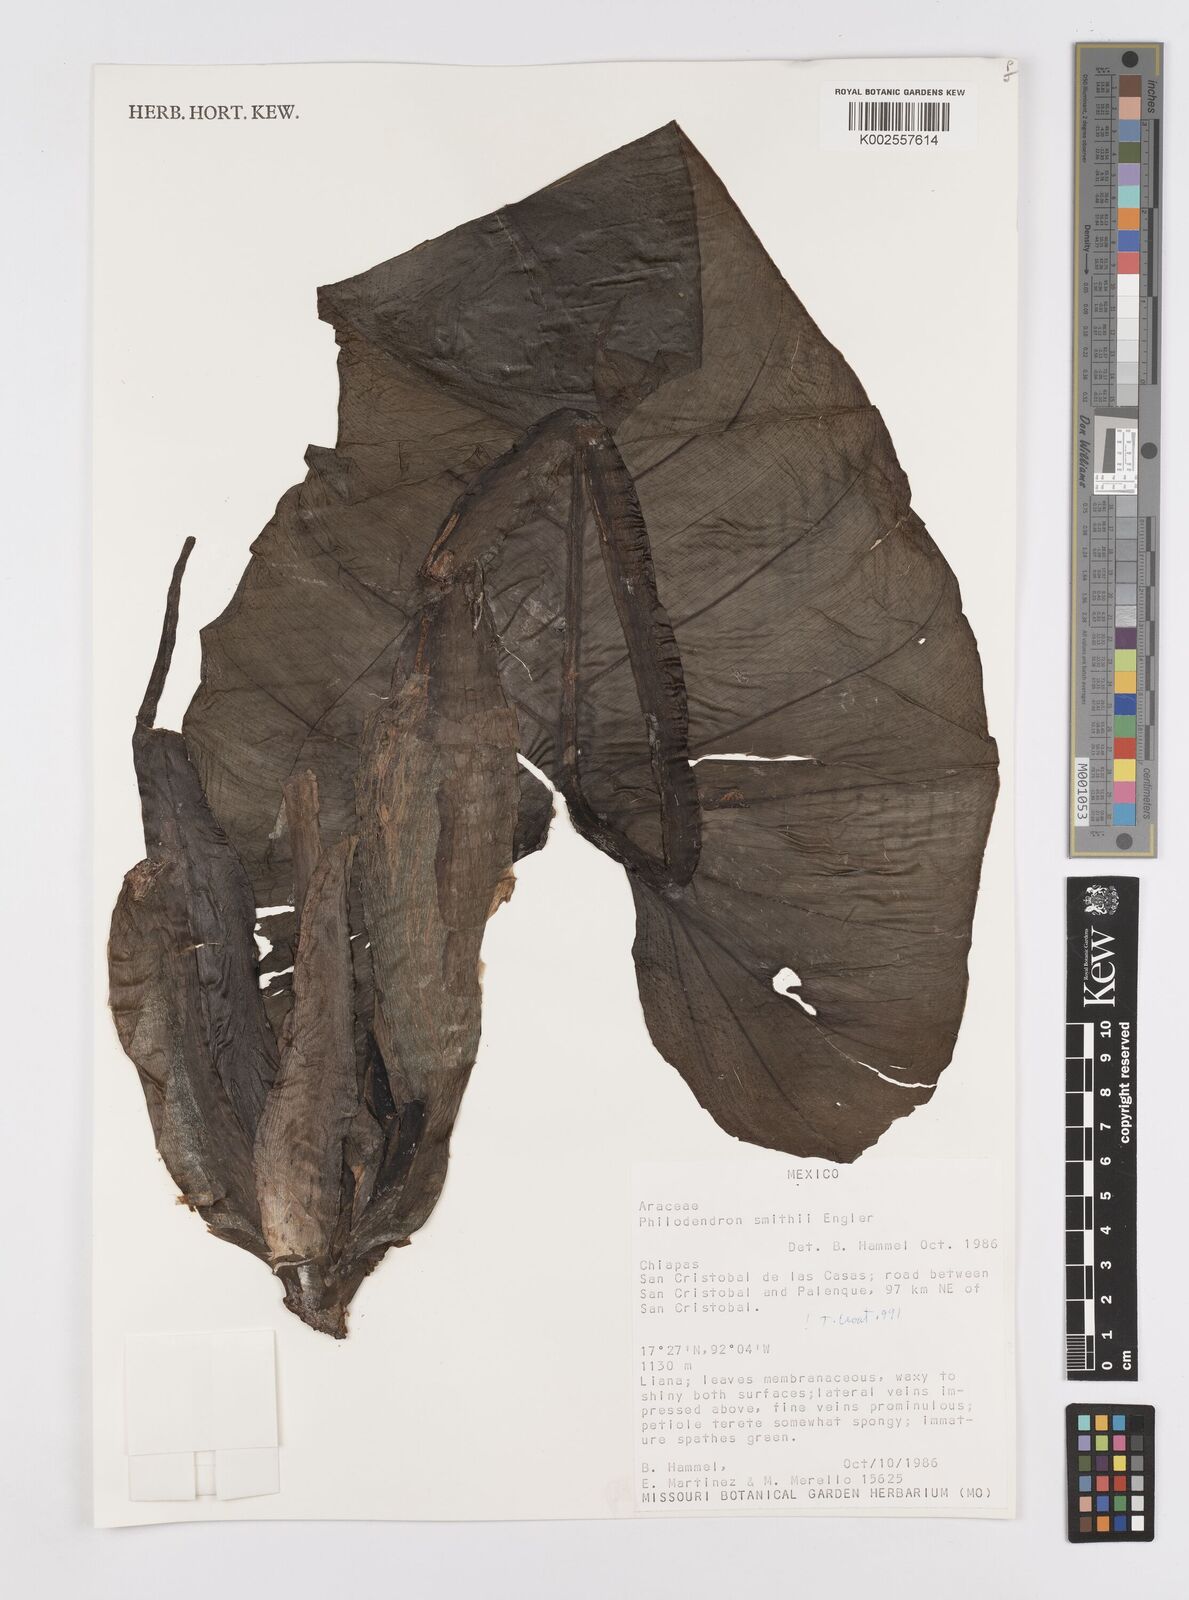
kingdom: Plantae
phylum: Tracheophyta
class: Liliopsida
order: Alismatales
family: Araceae
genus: Philodendron
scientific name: Philodendron smithii
